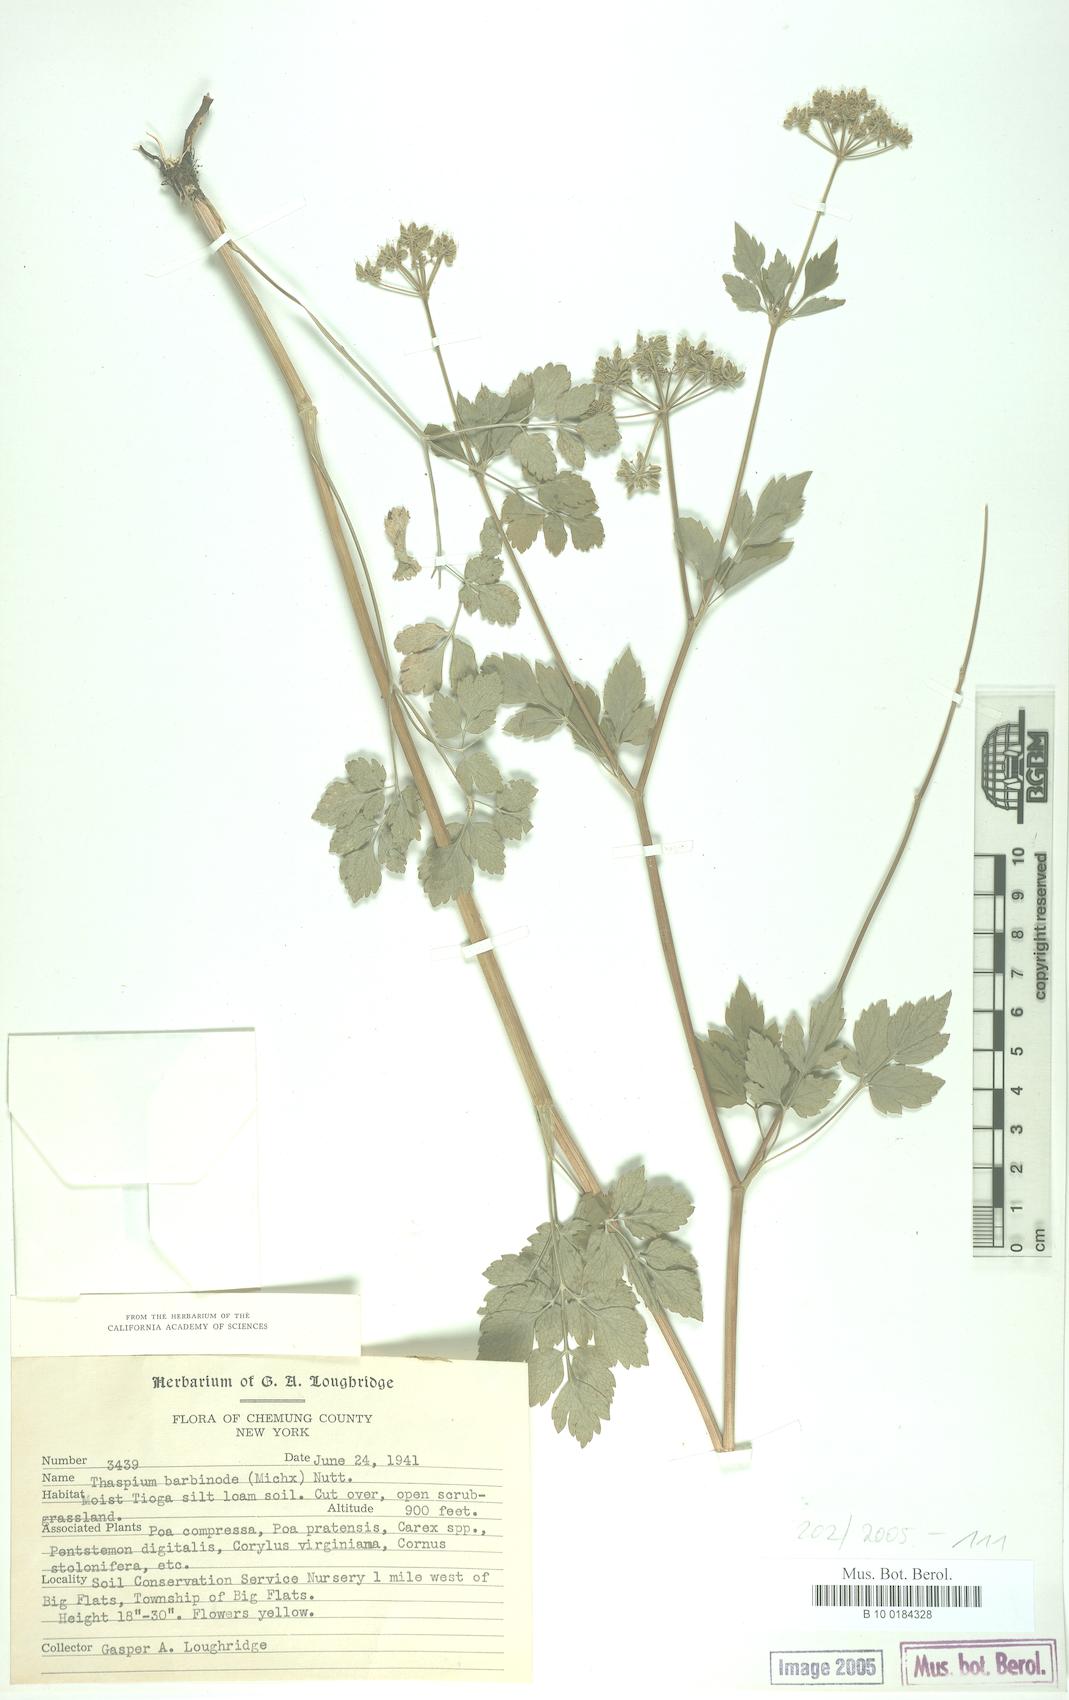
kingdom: Plantae
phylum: Tracheophyta
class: Magnoliopsida
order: Apiales
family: Apiaceae
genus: Thaspium
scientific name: Thaspium barbinode
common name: Bearded meadow-parsnip
